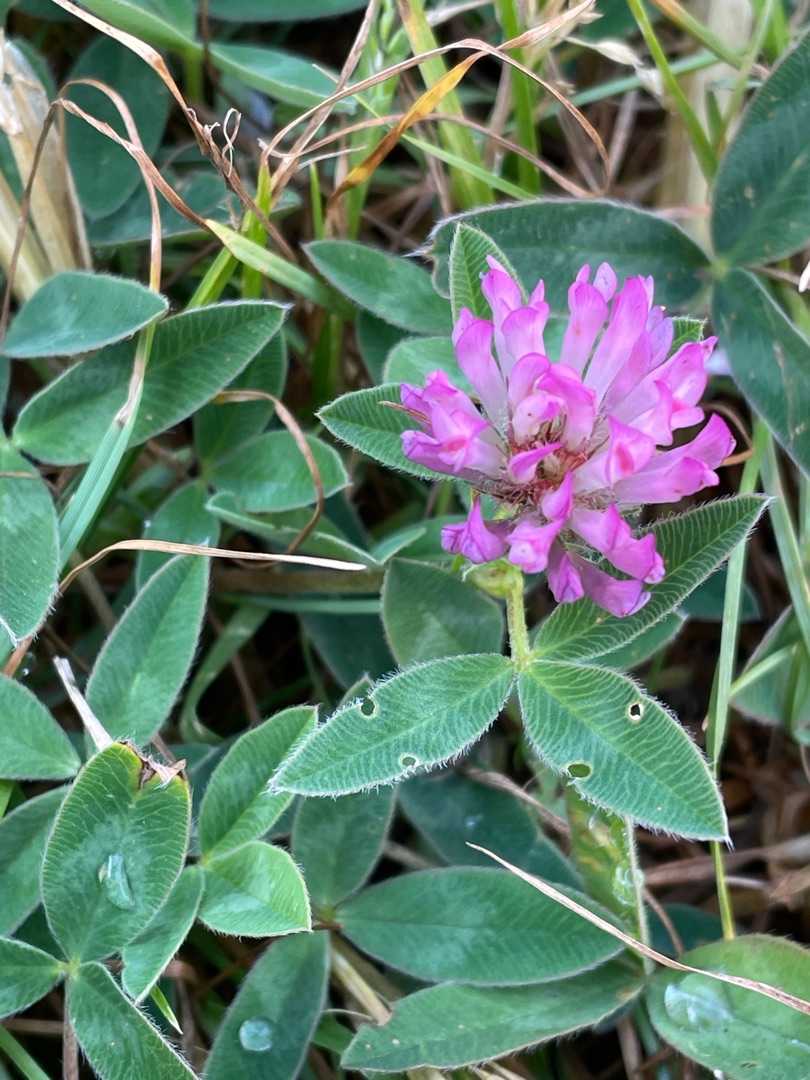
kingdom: Plantae
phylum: Tracheophyta
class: Magnoliopsida
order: Fabales
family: Fabaceae
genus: Trifolium
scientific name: Trifolium medium
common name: Bugtet kløver
